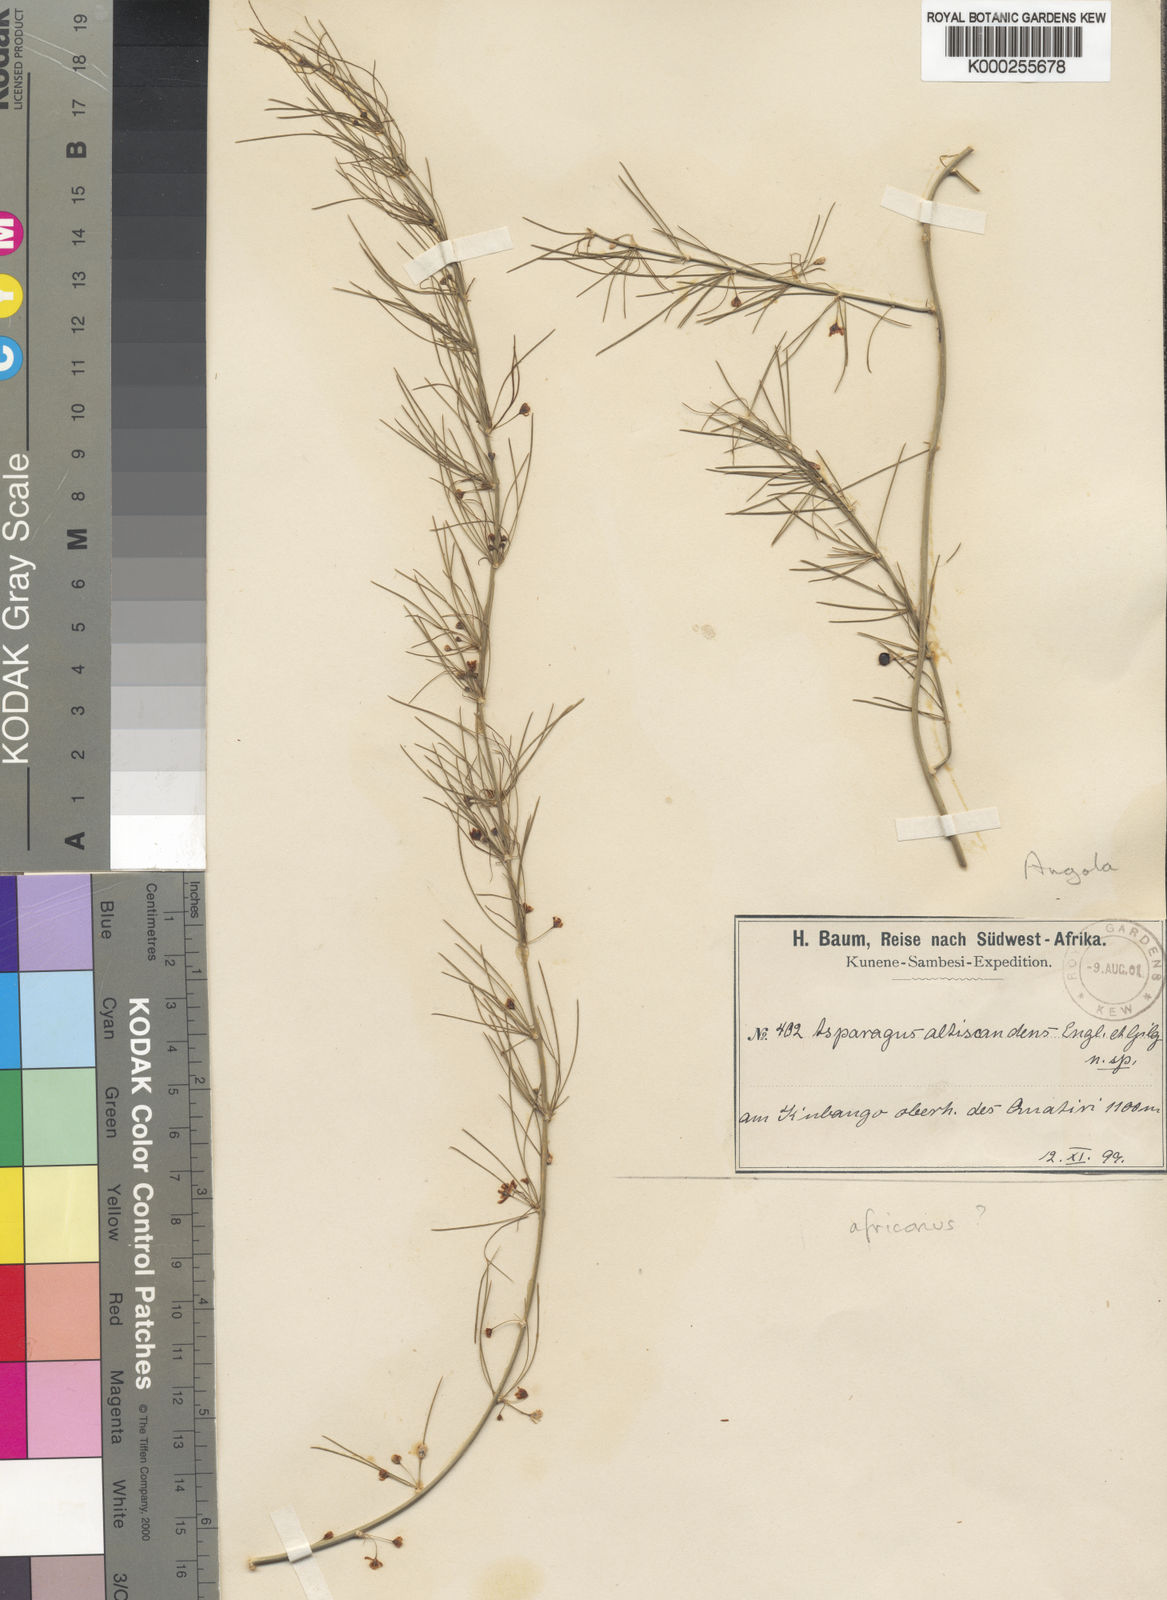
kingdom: Plantae
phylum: Tracheophyta
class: Liliopsida
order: Asparagales
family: Asparagaceae
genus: Asparagus
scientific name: Asparagus altiscandens
